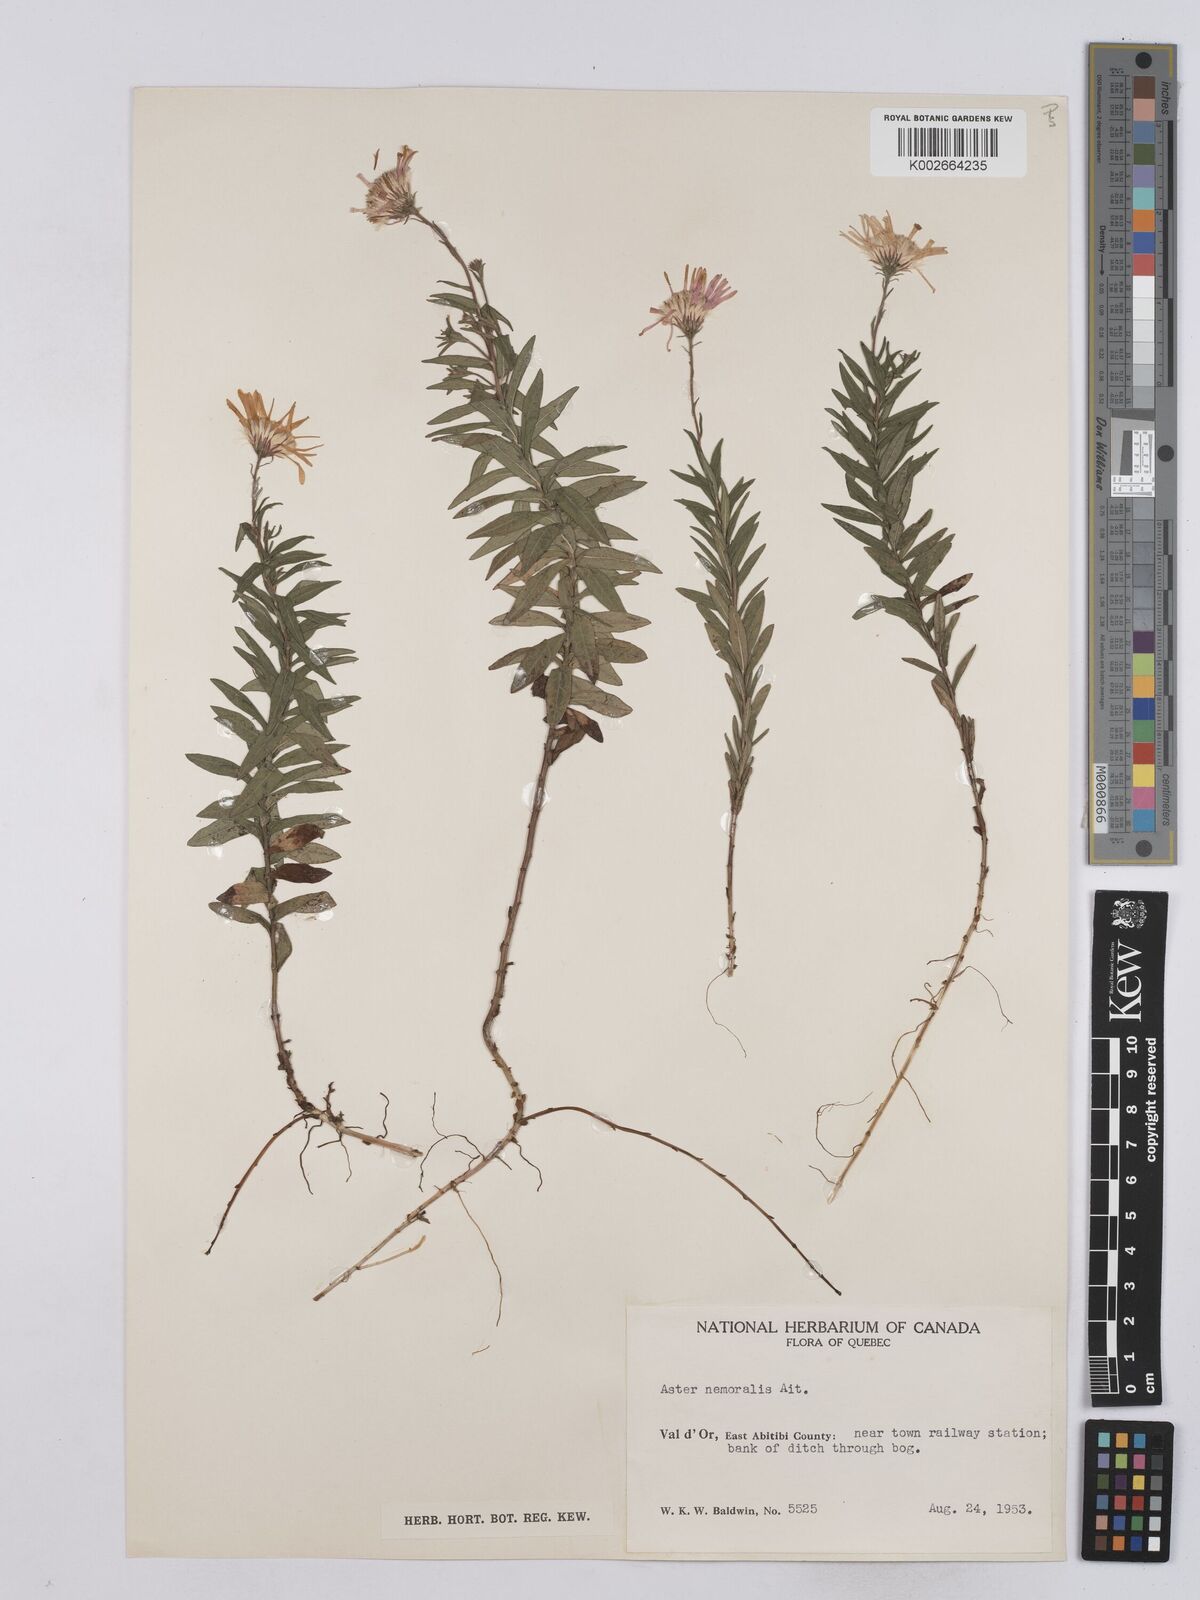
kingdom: Plantae
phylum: Tracheophyta
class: Magnoliopsida
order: Asterales
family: Asteraceae
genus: Oclemena
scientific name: Oclemena nemoralis
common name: Bog aster
